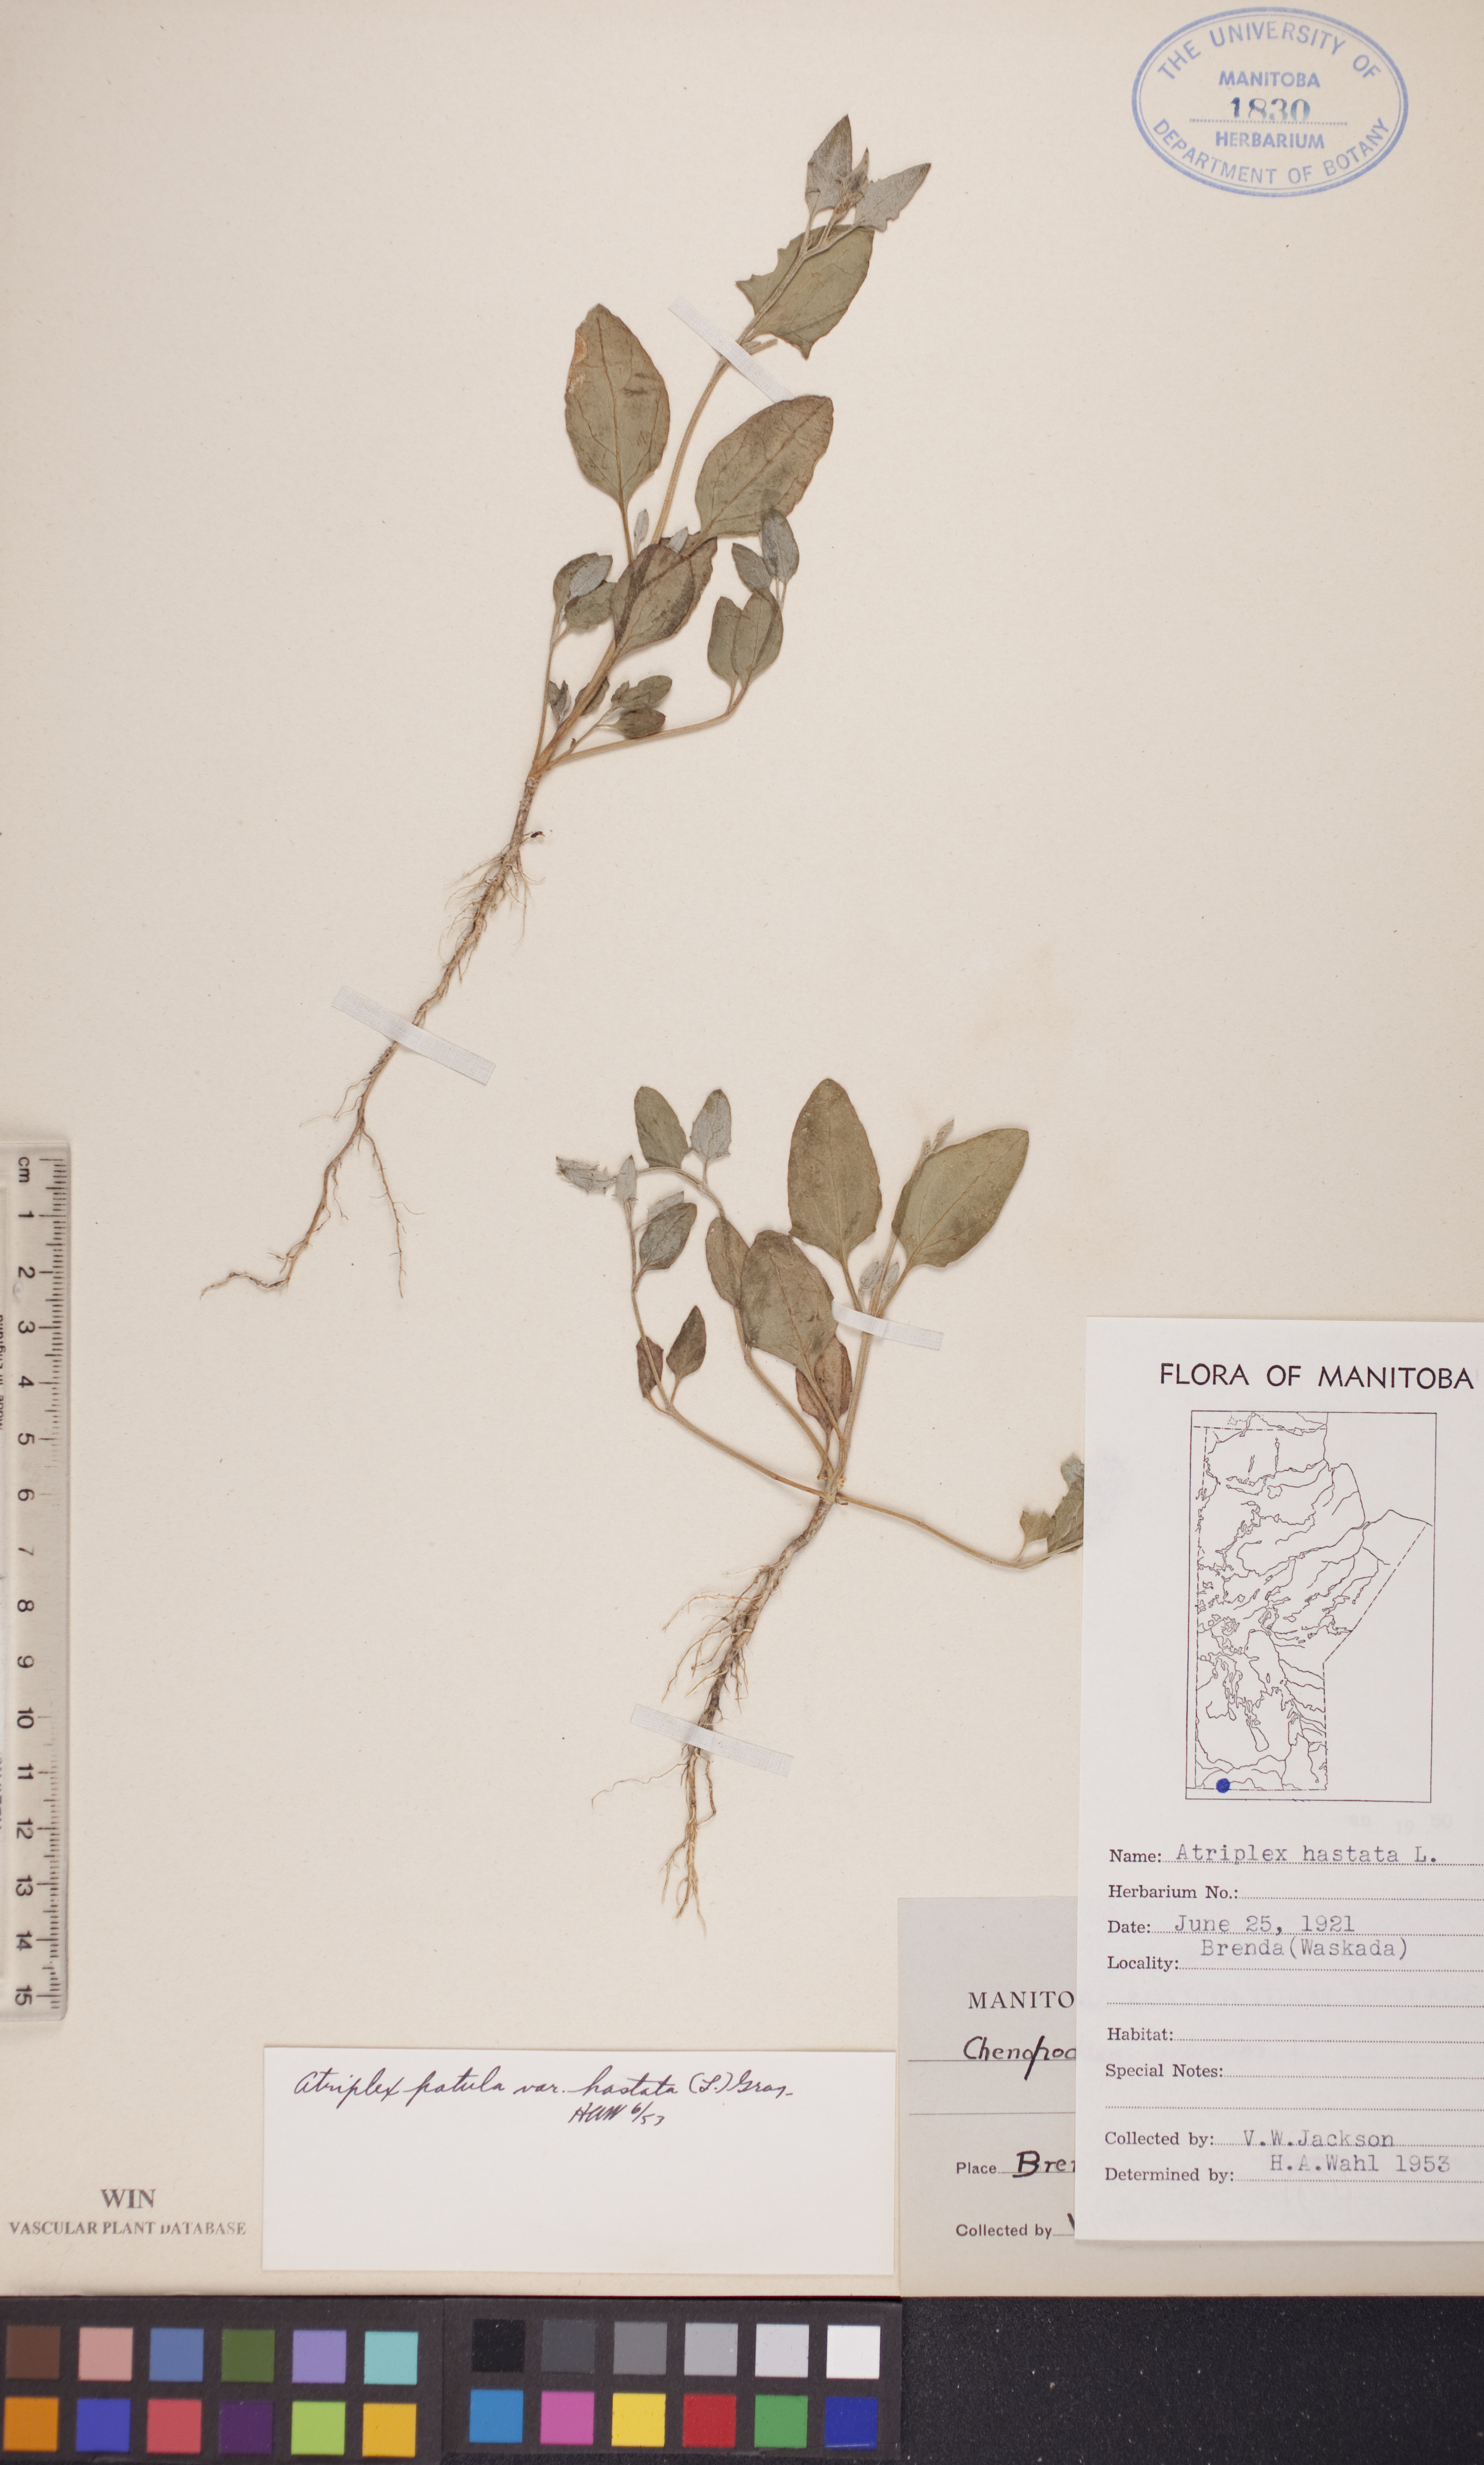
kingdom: Plantae
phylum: Tracheophyta
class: Magnoliopsida
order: Caryophyllales
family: Amaranthaceae
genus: Atriplex
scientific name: Atriplex
